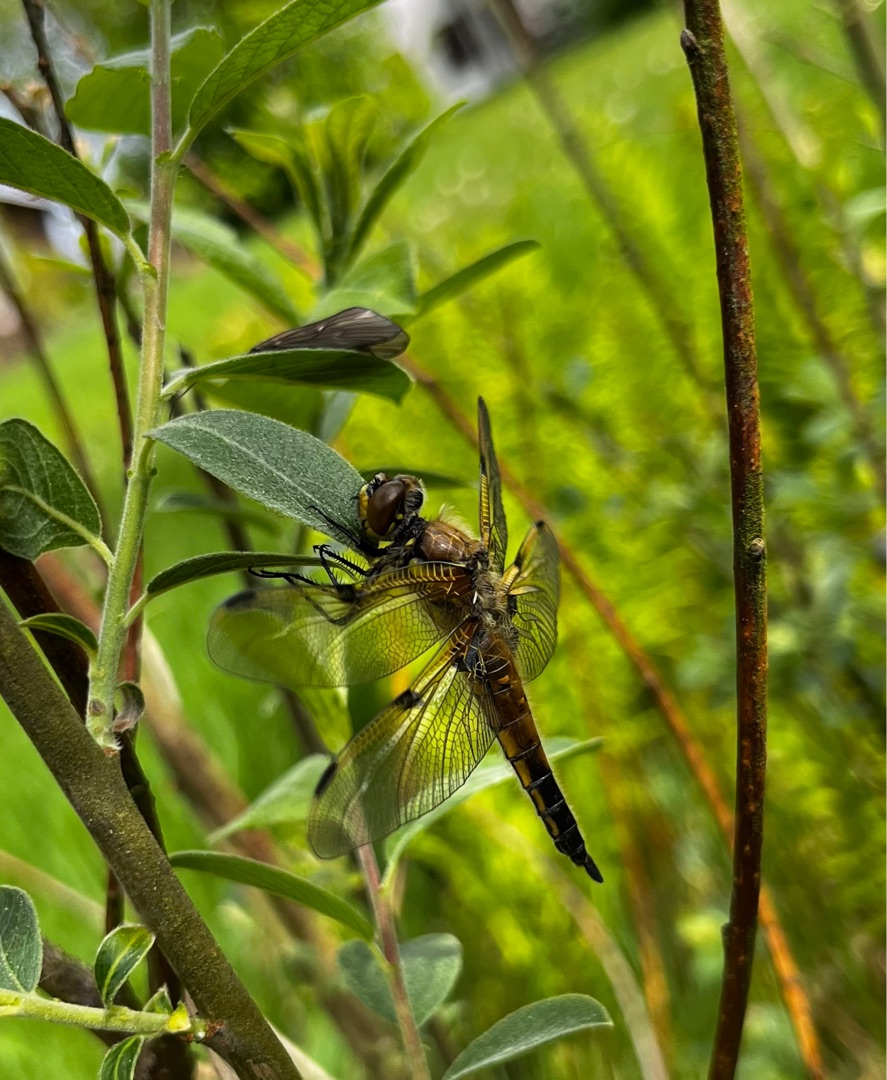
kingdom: Animalia
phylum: Arthropoda
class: Insecta
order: Odonata
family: Libellulidae
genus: Libellula
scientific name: Libellula quadrimaculata
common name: Fireplettet libel
